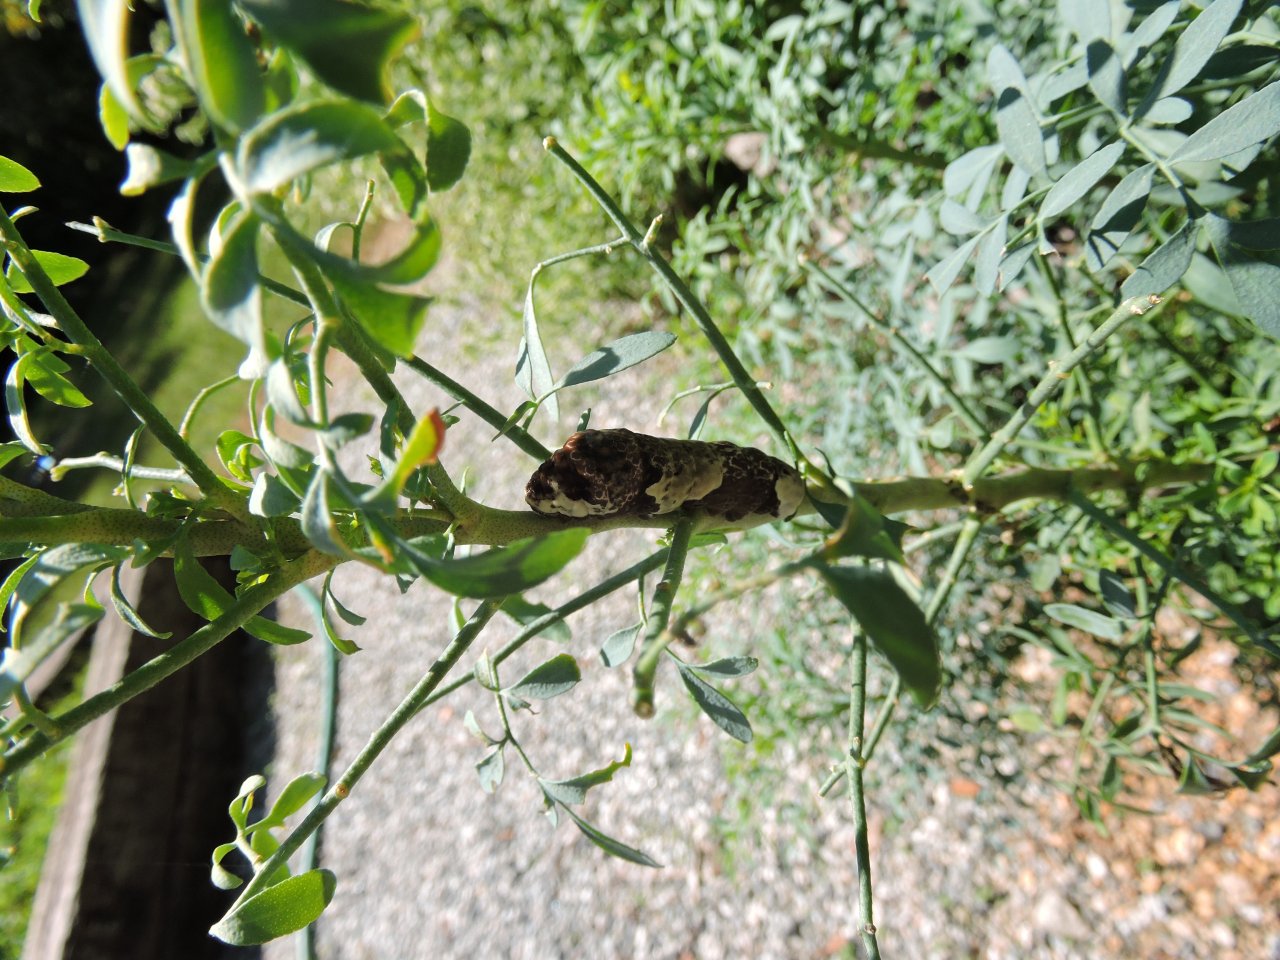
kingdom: Animalia
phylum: Arthropoda
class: Insecta
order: Lepidoptera
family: Papilionidae
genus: Papilio
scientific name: Papilio cresphontes
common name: Eastern Giant Swallowtail
